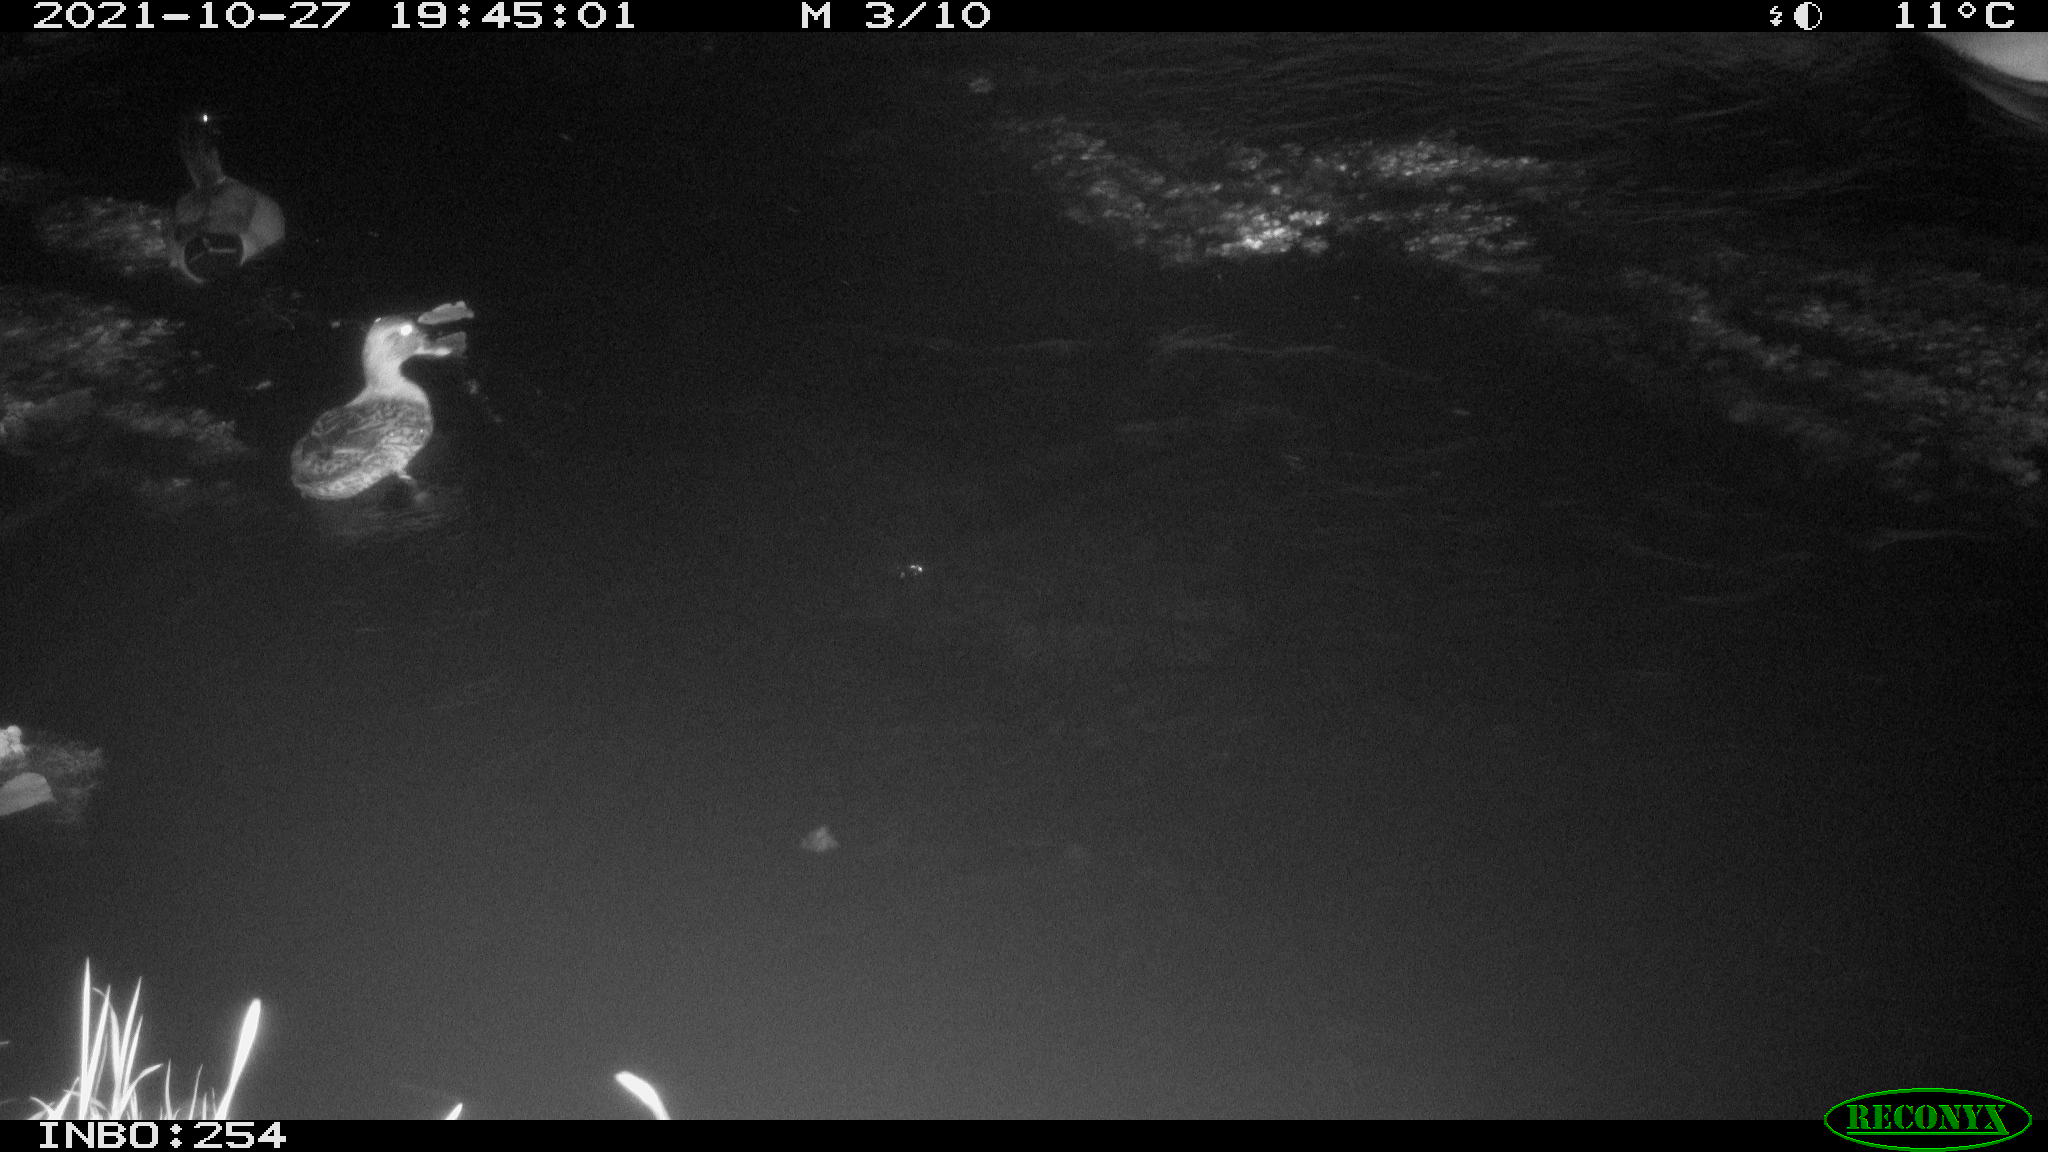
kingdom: Animalia
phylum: Chordata
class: Aves
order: Anseriformes
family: Anatidae
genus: Anas
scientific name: Anas platyrhynchos
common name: Mallard
